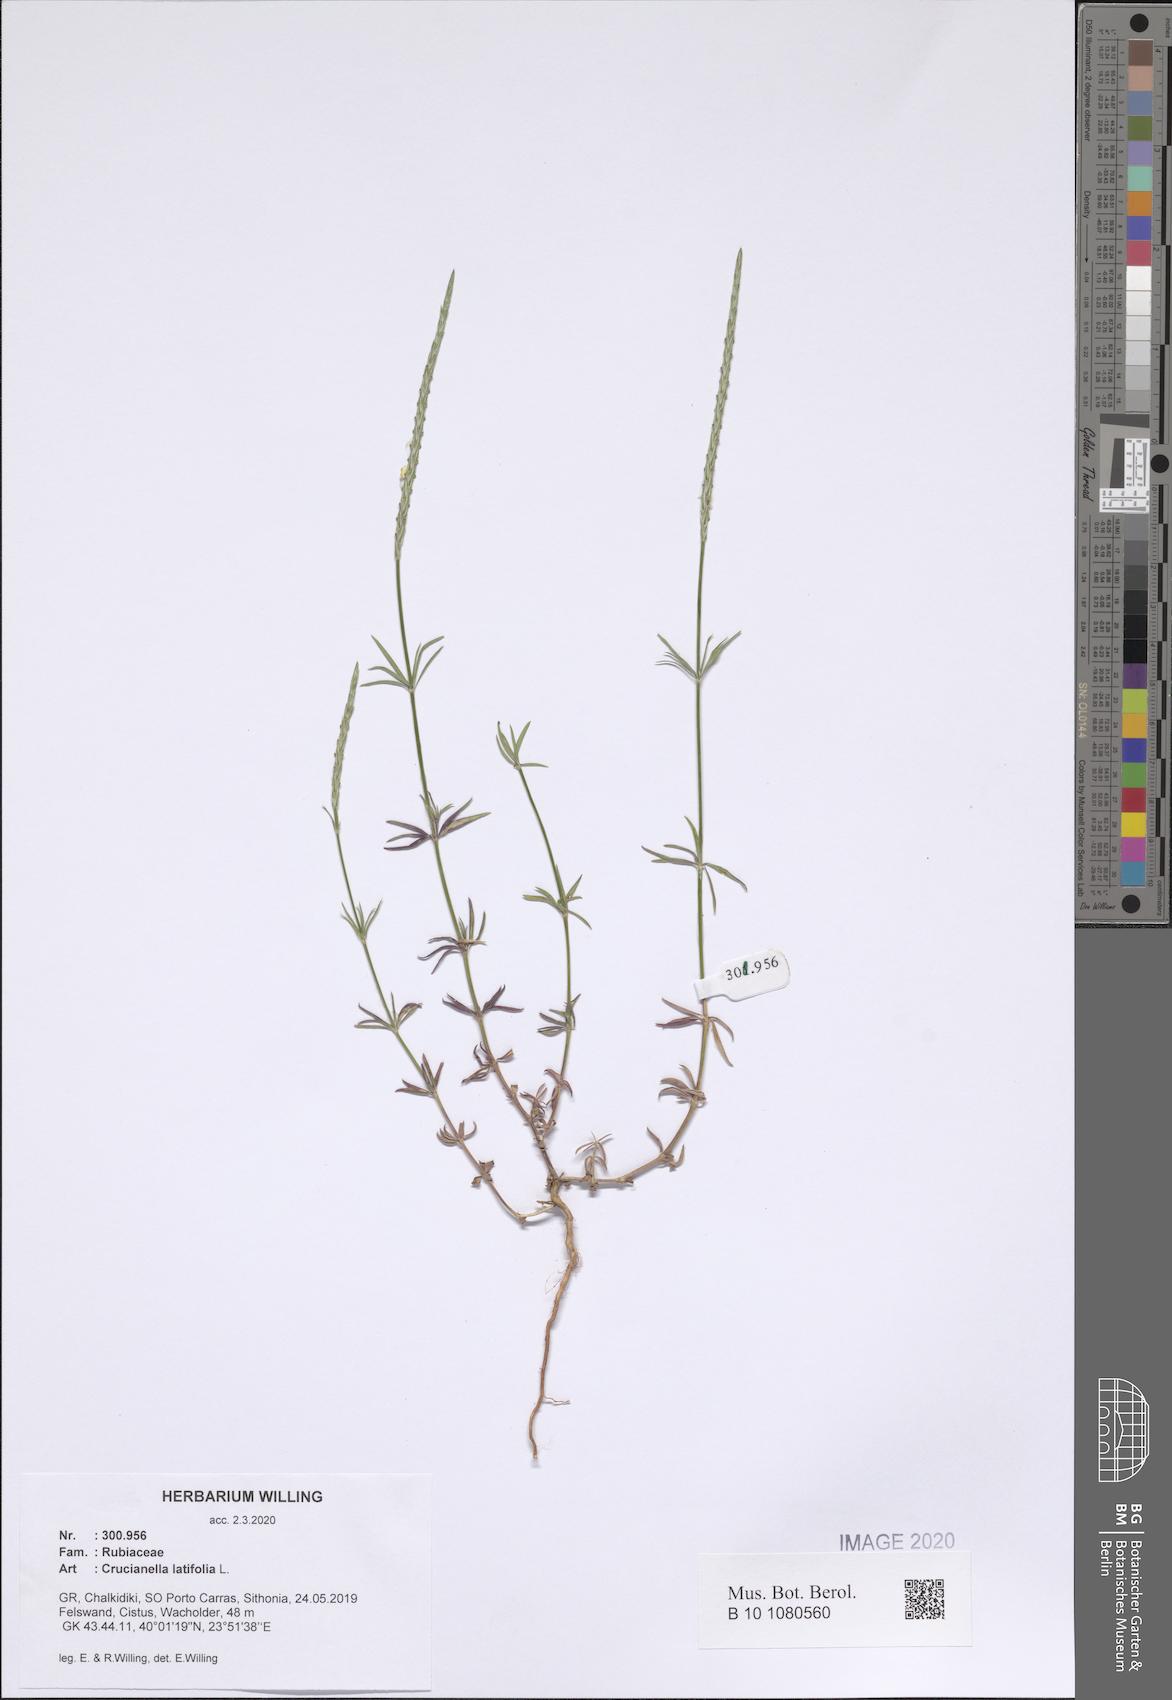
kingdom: Plantae
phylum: Tracheophyta
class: Magnoliopsida
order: Gentianales
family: Rubiaceae
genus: Crucianella
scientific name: Crucianella latifolia
